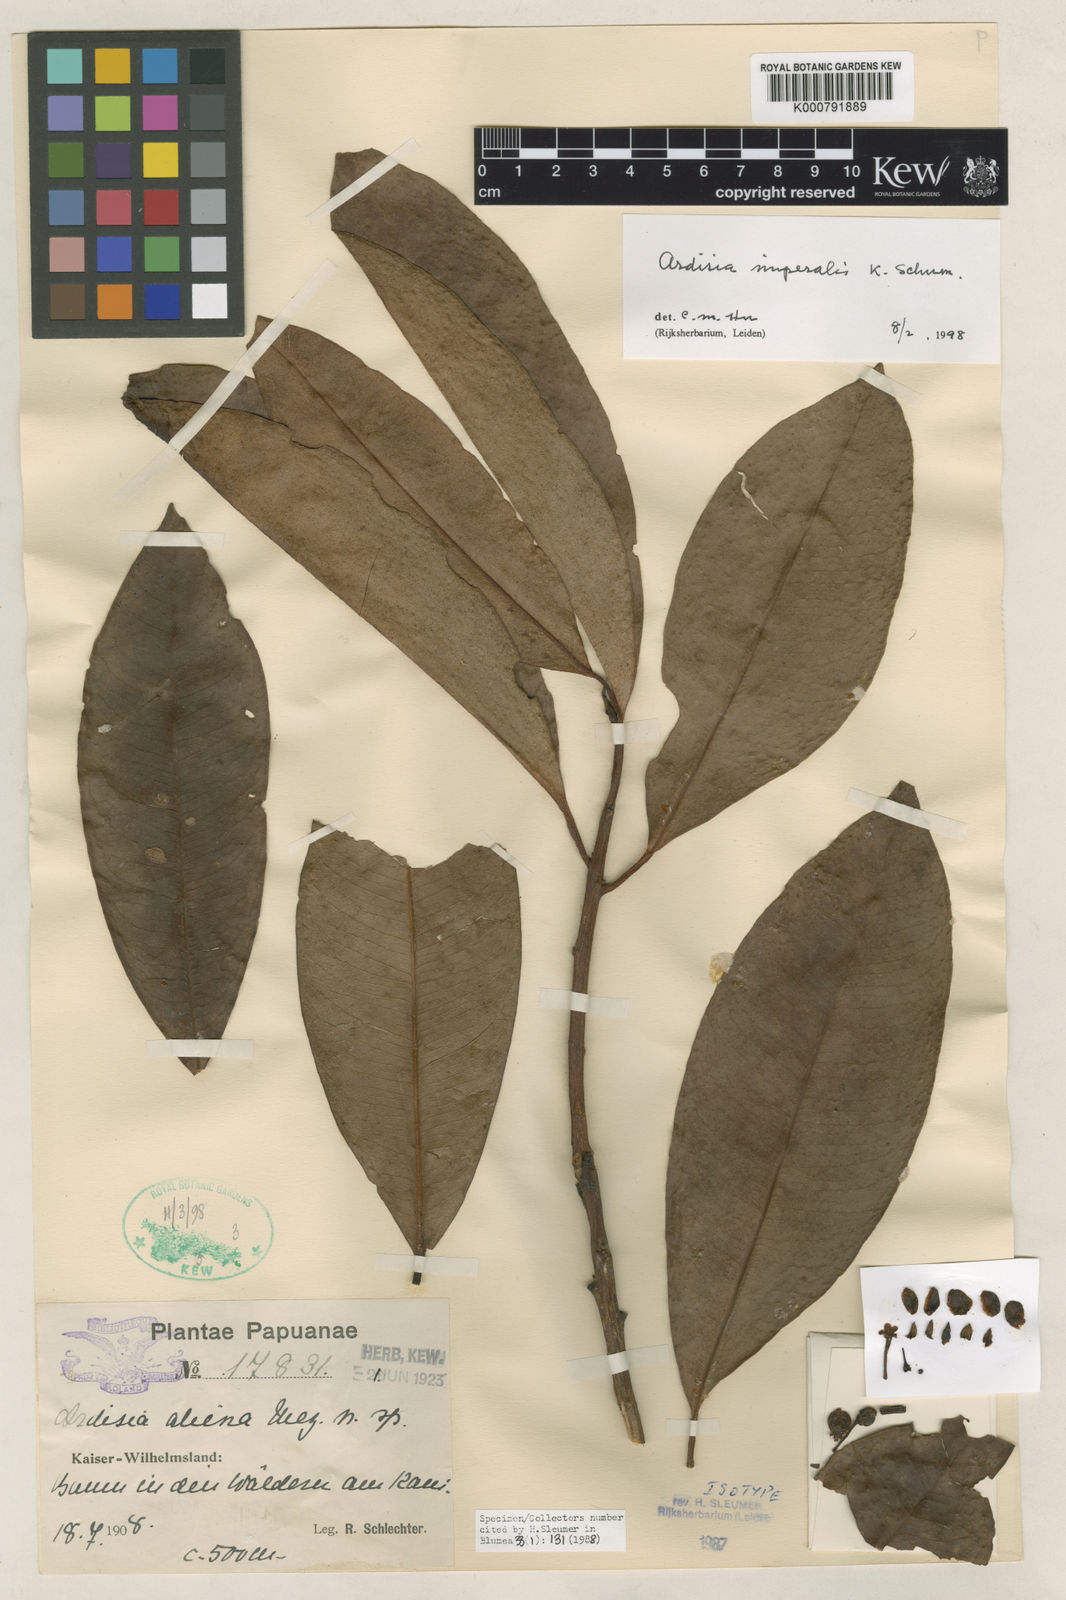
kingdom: Plantae
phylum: Tracheophyta
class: Magnoliopsida
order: Ericales
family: Primulaceae
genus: Ardisia
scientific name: Ardisia imperialis
